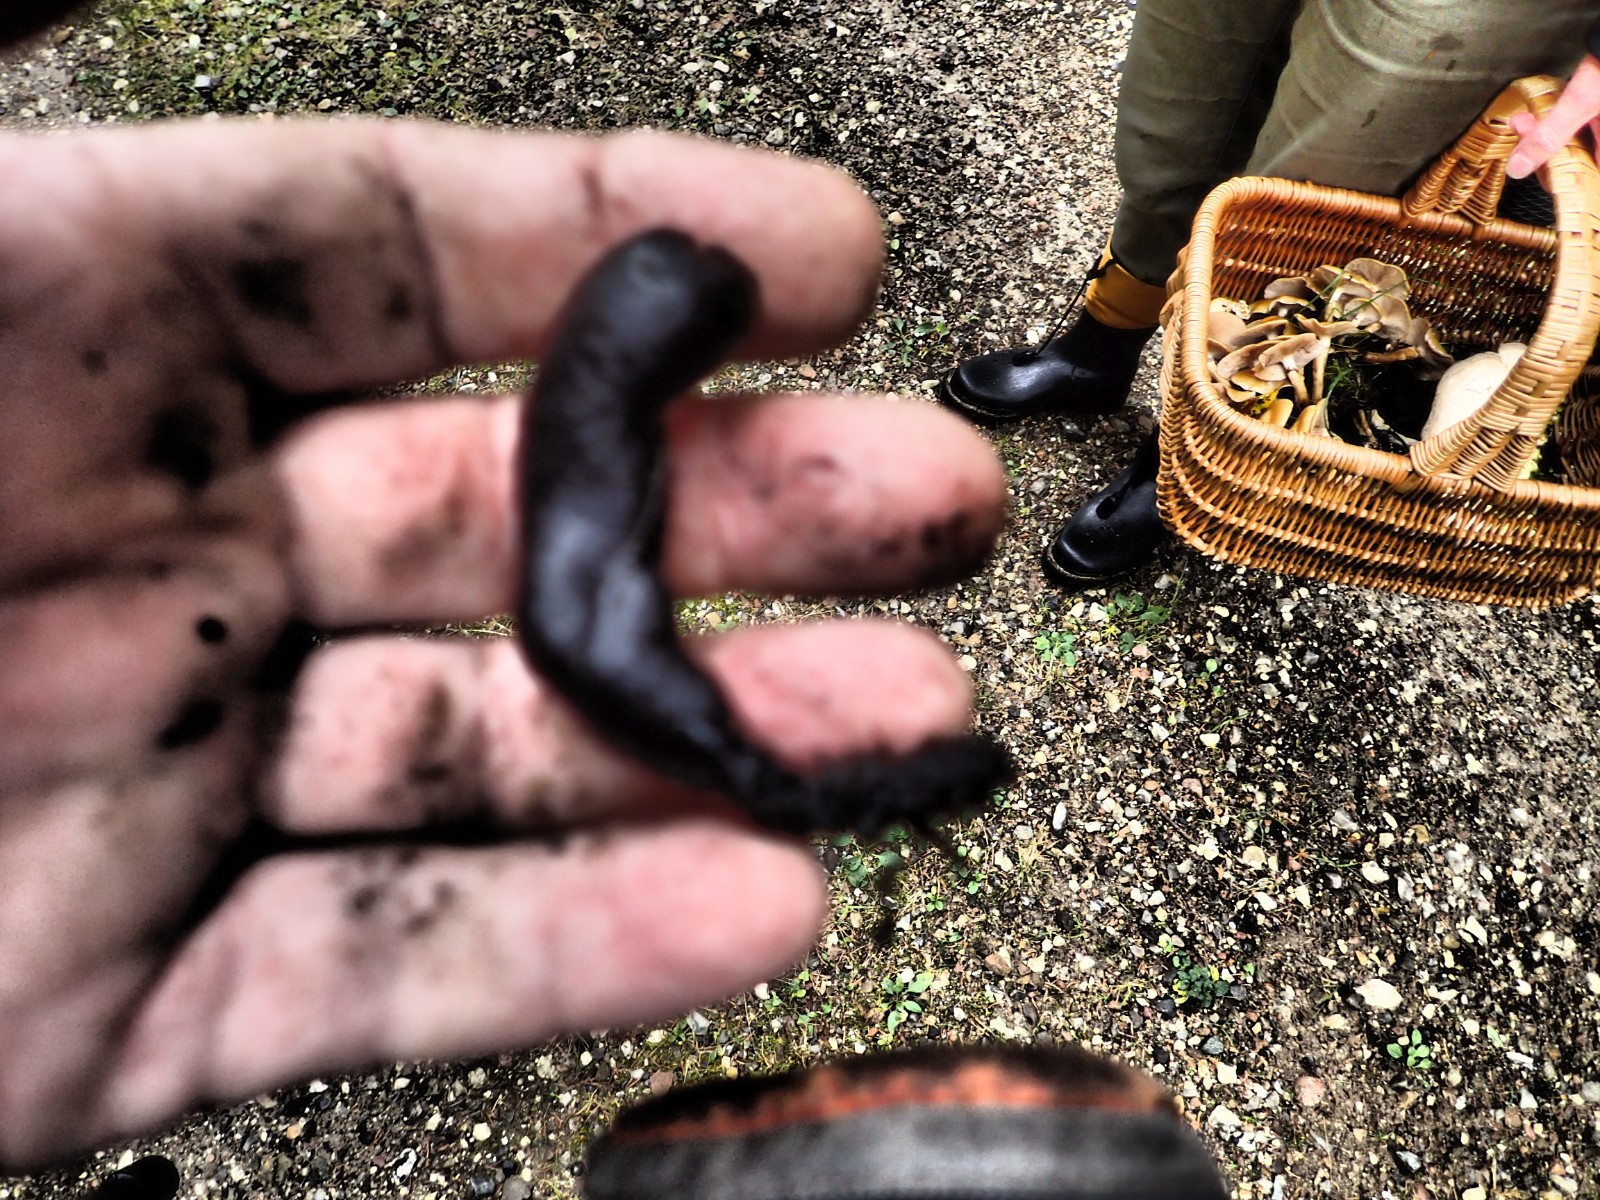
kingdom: Fungi
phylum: Ascomycota
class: Sordariomycetes
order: Xylariales
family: Xylariaceae
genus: Xylaria
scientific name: Xylaria polymorpha
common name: kølle-stødsvamp
